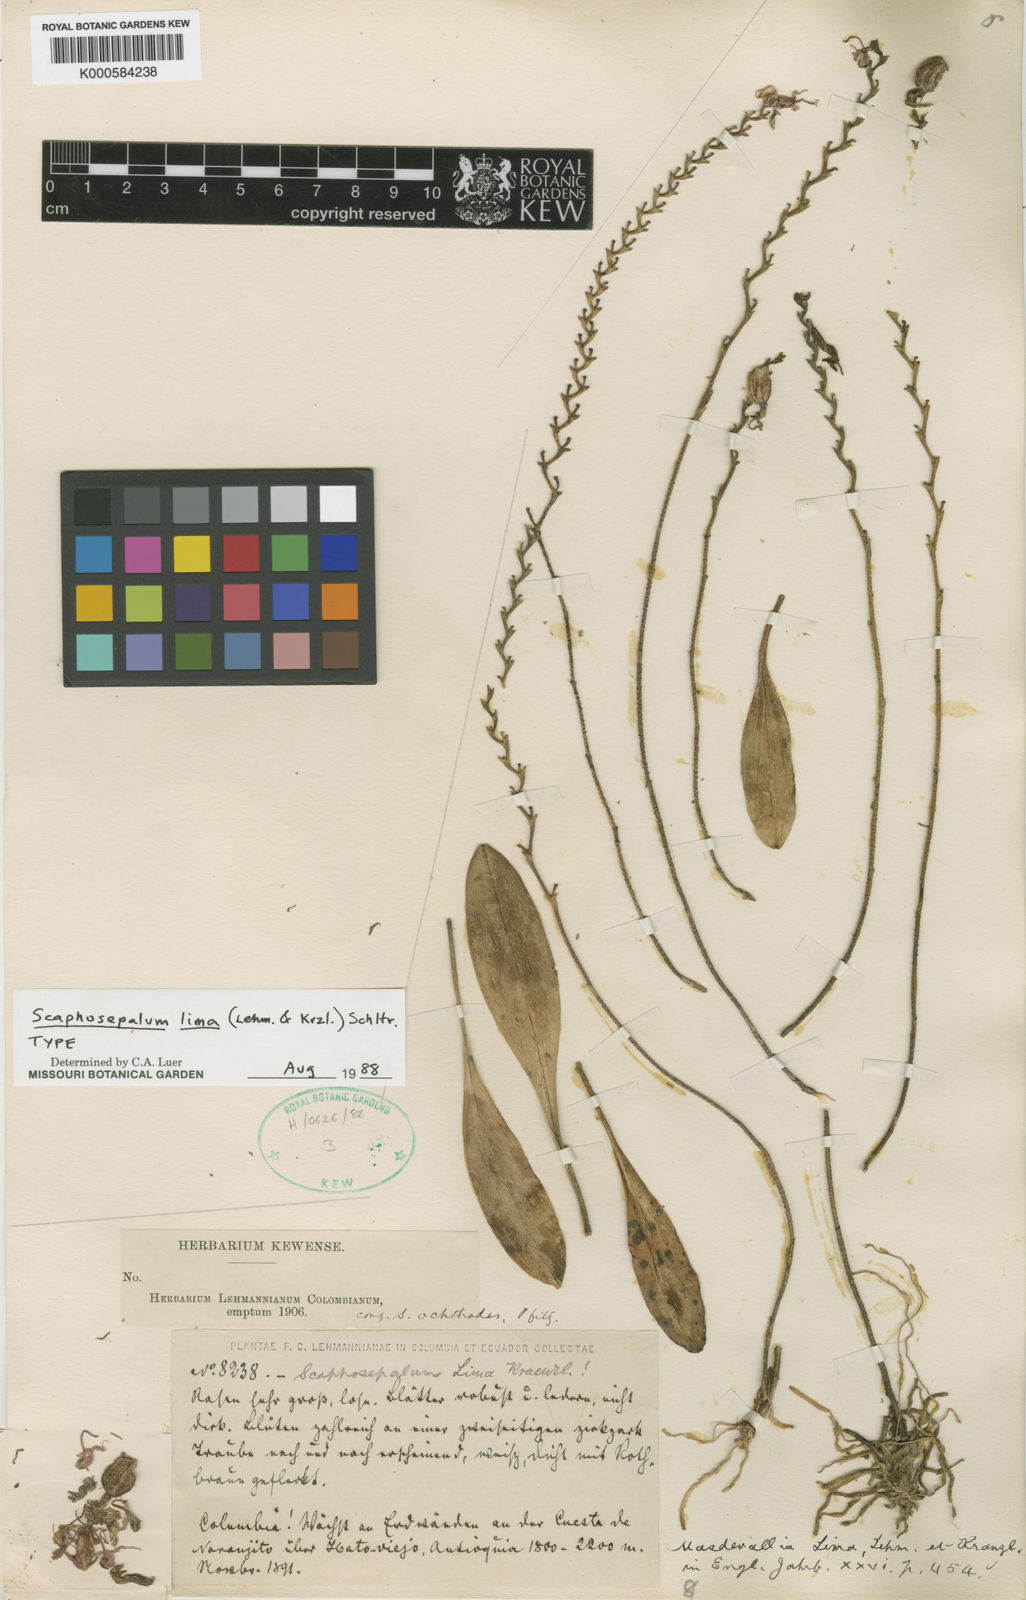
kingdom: Plantae
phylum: Tracheophyta
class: Liliopsida
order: Asparagales
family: Orchidaceae
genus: Scaphosepalum
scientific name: Scaphosepalum lima
